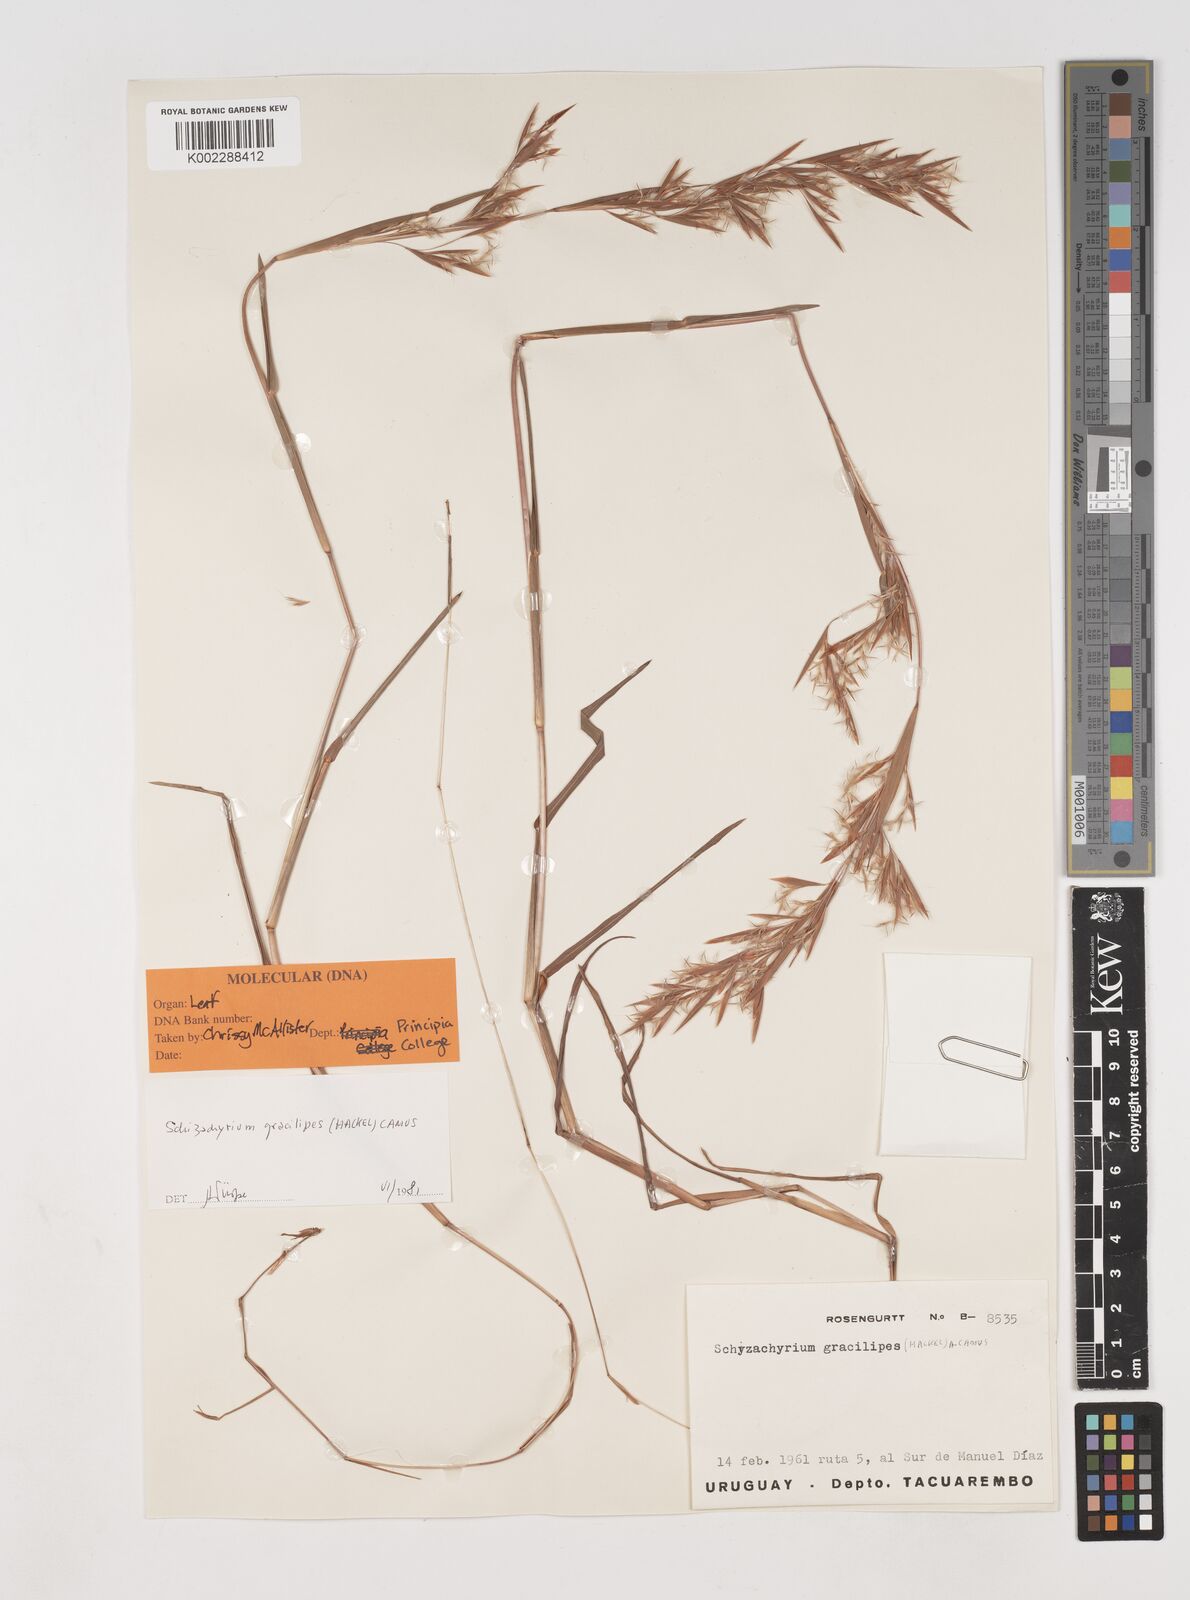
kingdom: Plantae
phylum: Tracheophyta
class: Liliopsida
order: Poales
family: Poaceae
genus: Schizachyrium
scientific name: Schizachyrium gracilipes
